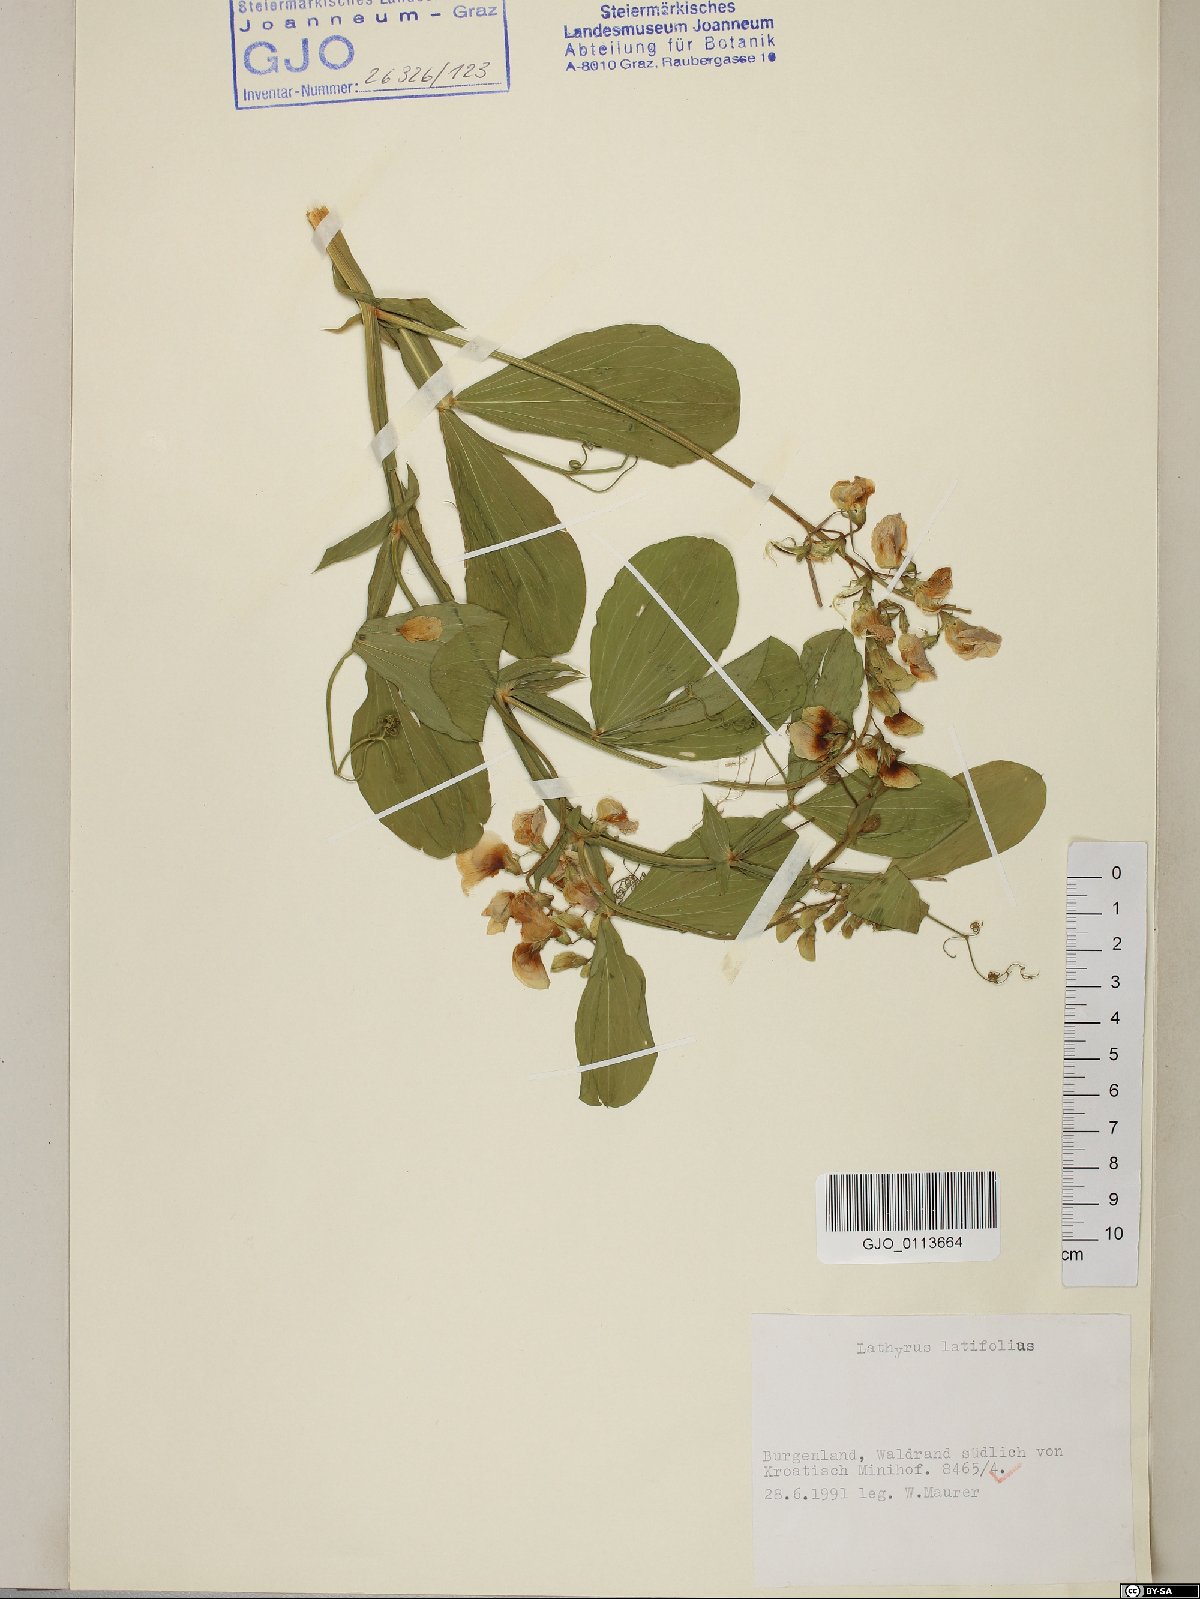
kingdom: Plantae
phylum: Tracheophyta
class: Magnoliopsida
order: Fabales
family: Fabaceae
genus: Lathyrus
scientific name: Lathyrus latifolius
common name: Perennial pea
